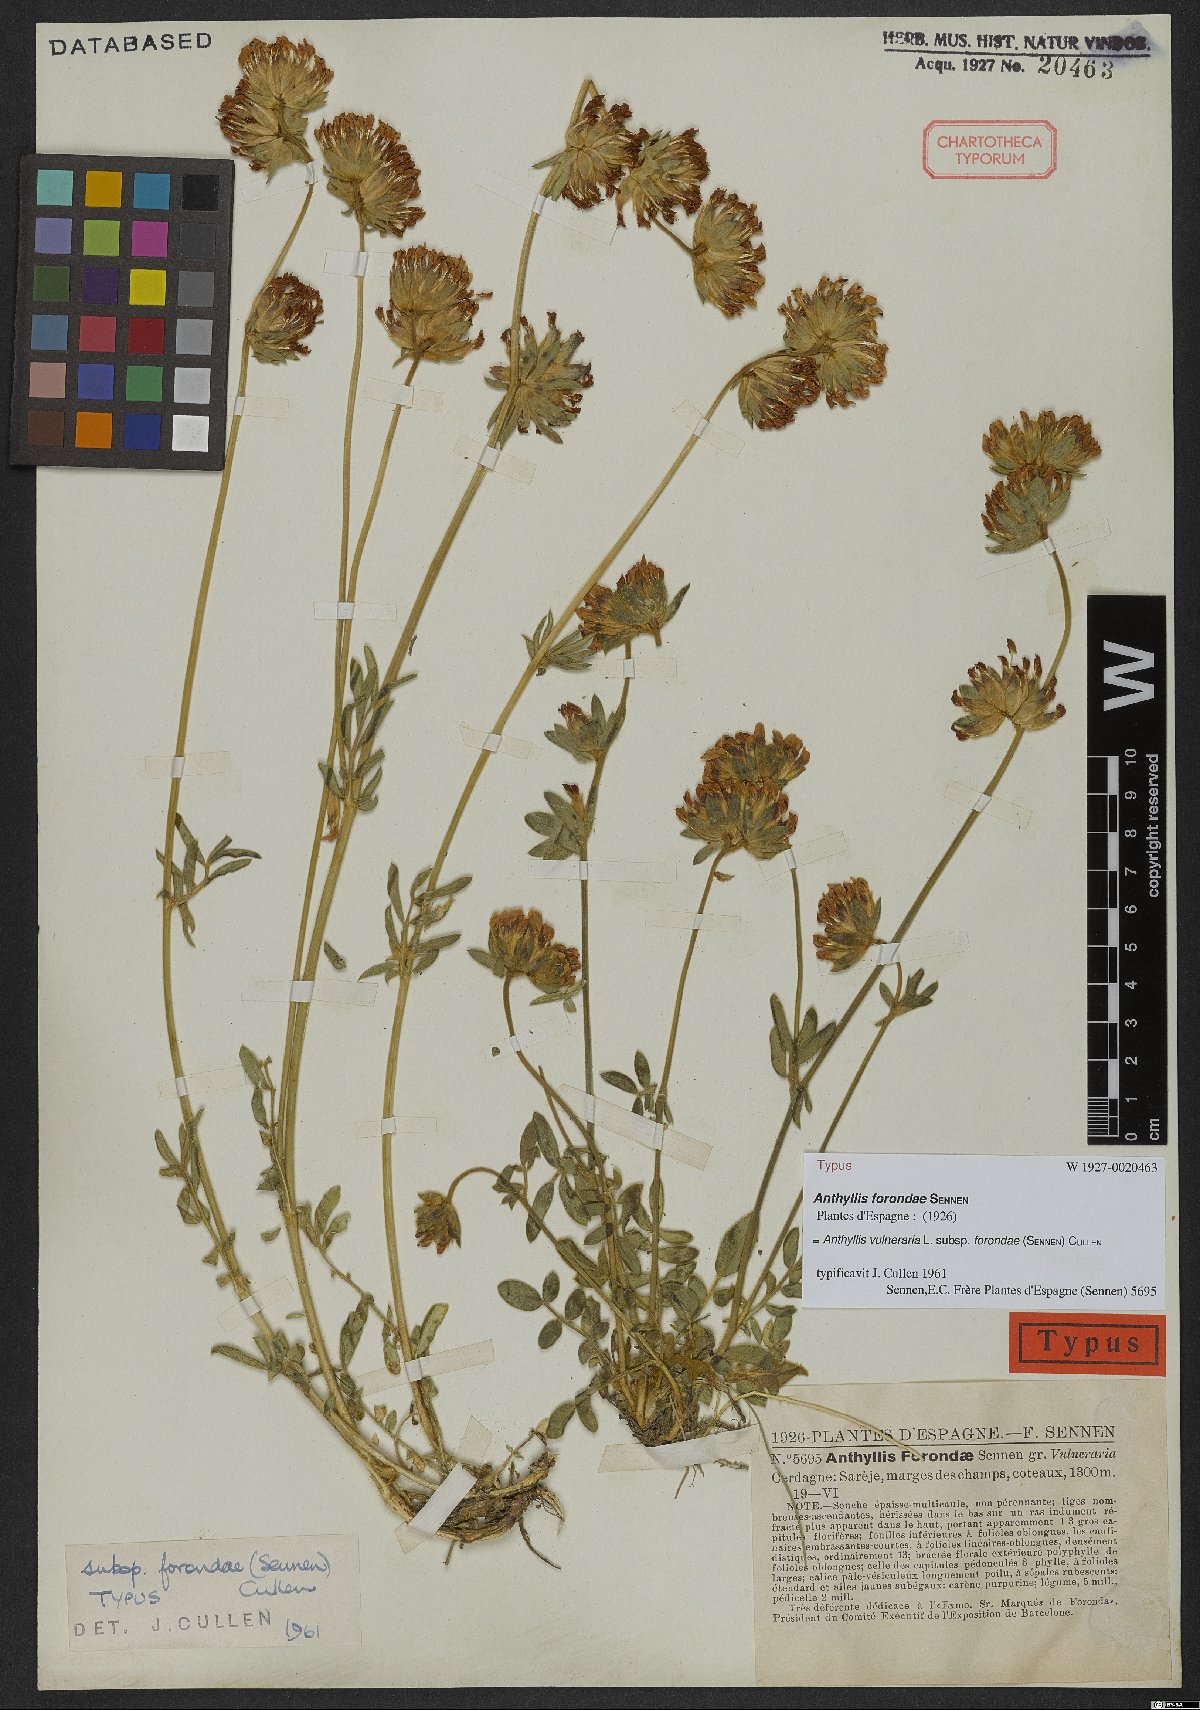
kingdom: Plantae
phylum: Tracheophyta
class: Magnoliopsida
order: Fabales
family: Fabaceae
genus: Anthyllis
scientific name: Anthyllis vulneraria
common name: Kidney vetch
